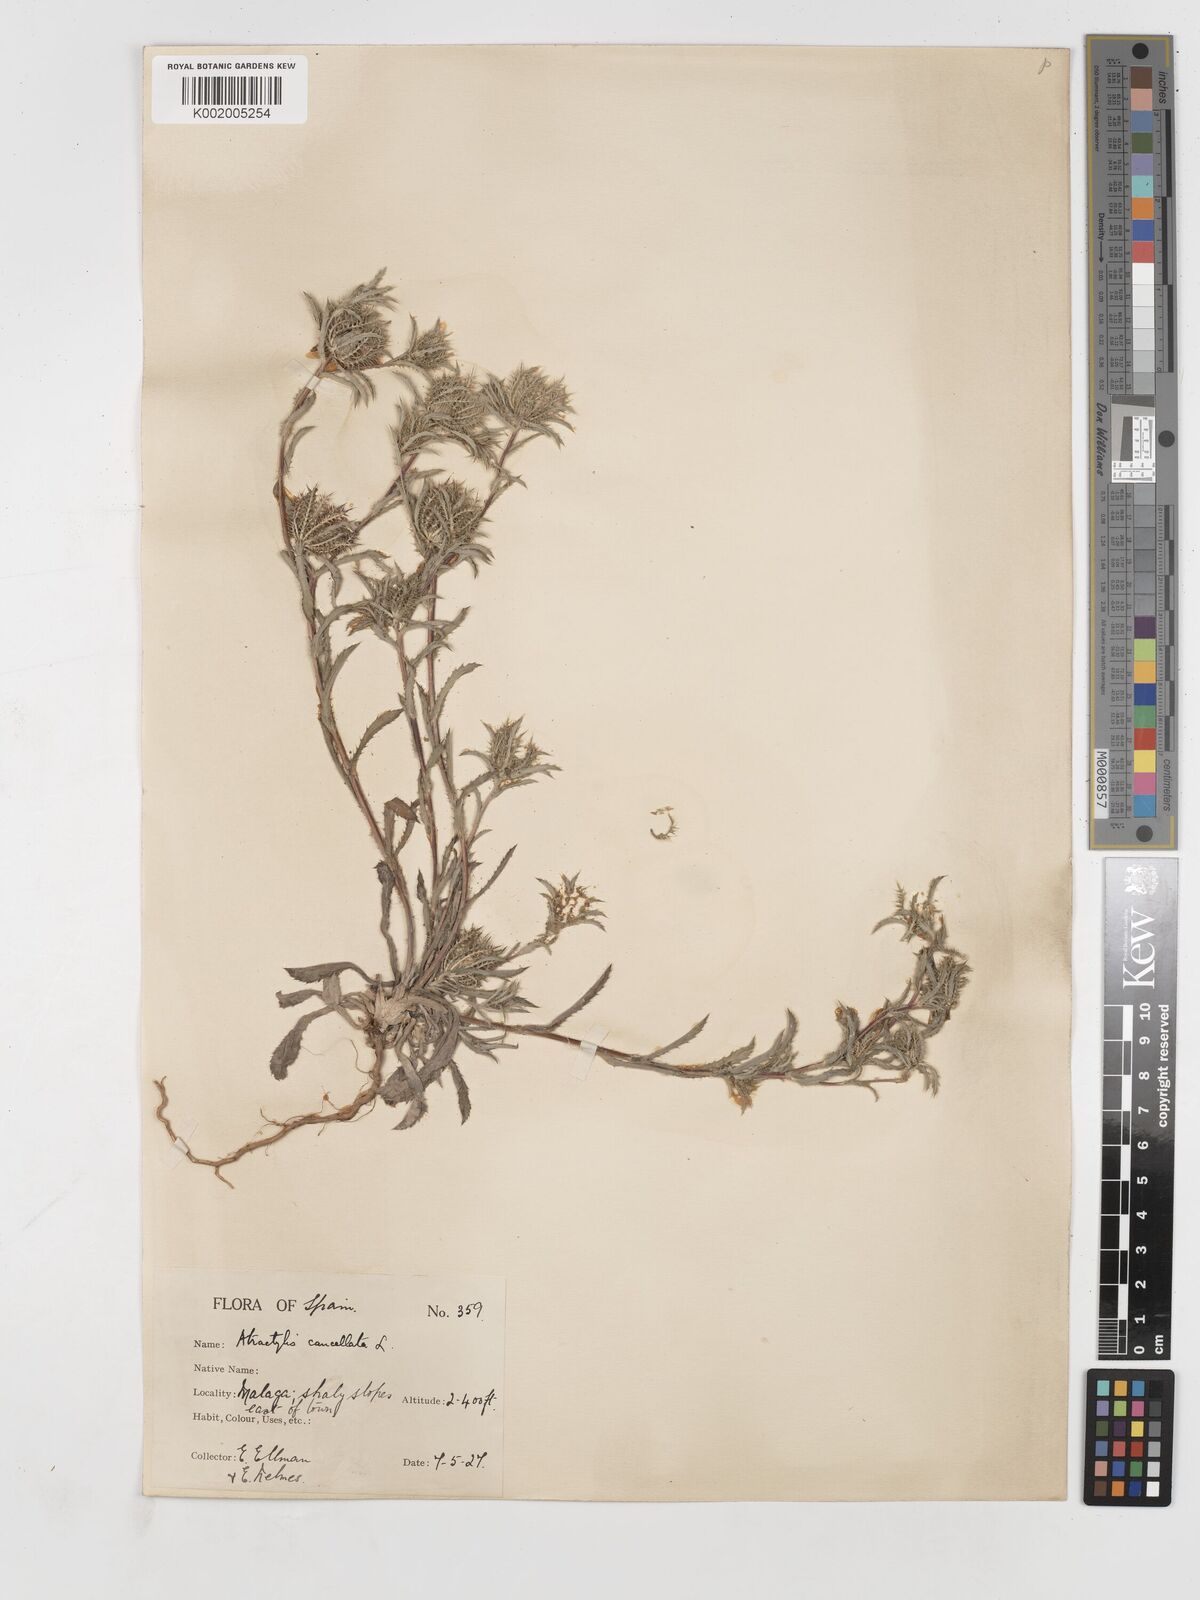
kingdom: Plantae
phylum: Tracheophyta
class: Magnoliopsida
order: Asterales
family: Asteraceae
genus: Atractylis
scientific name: Atractylis cancellata
